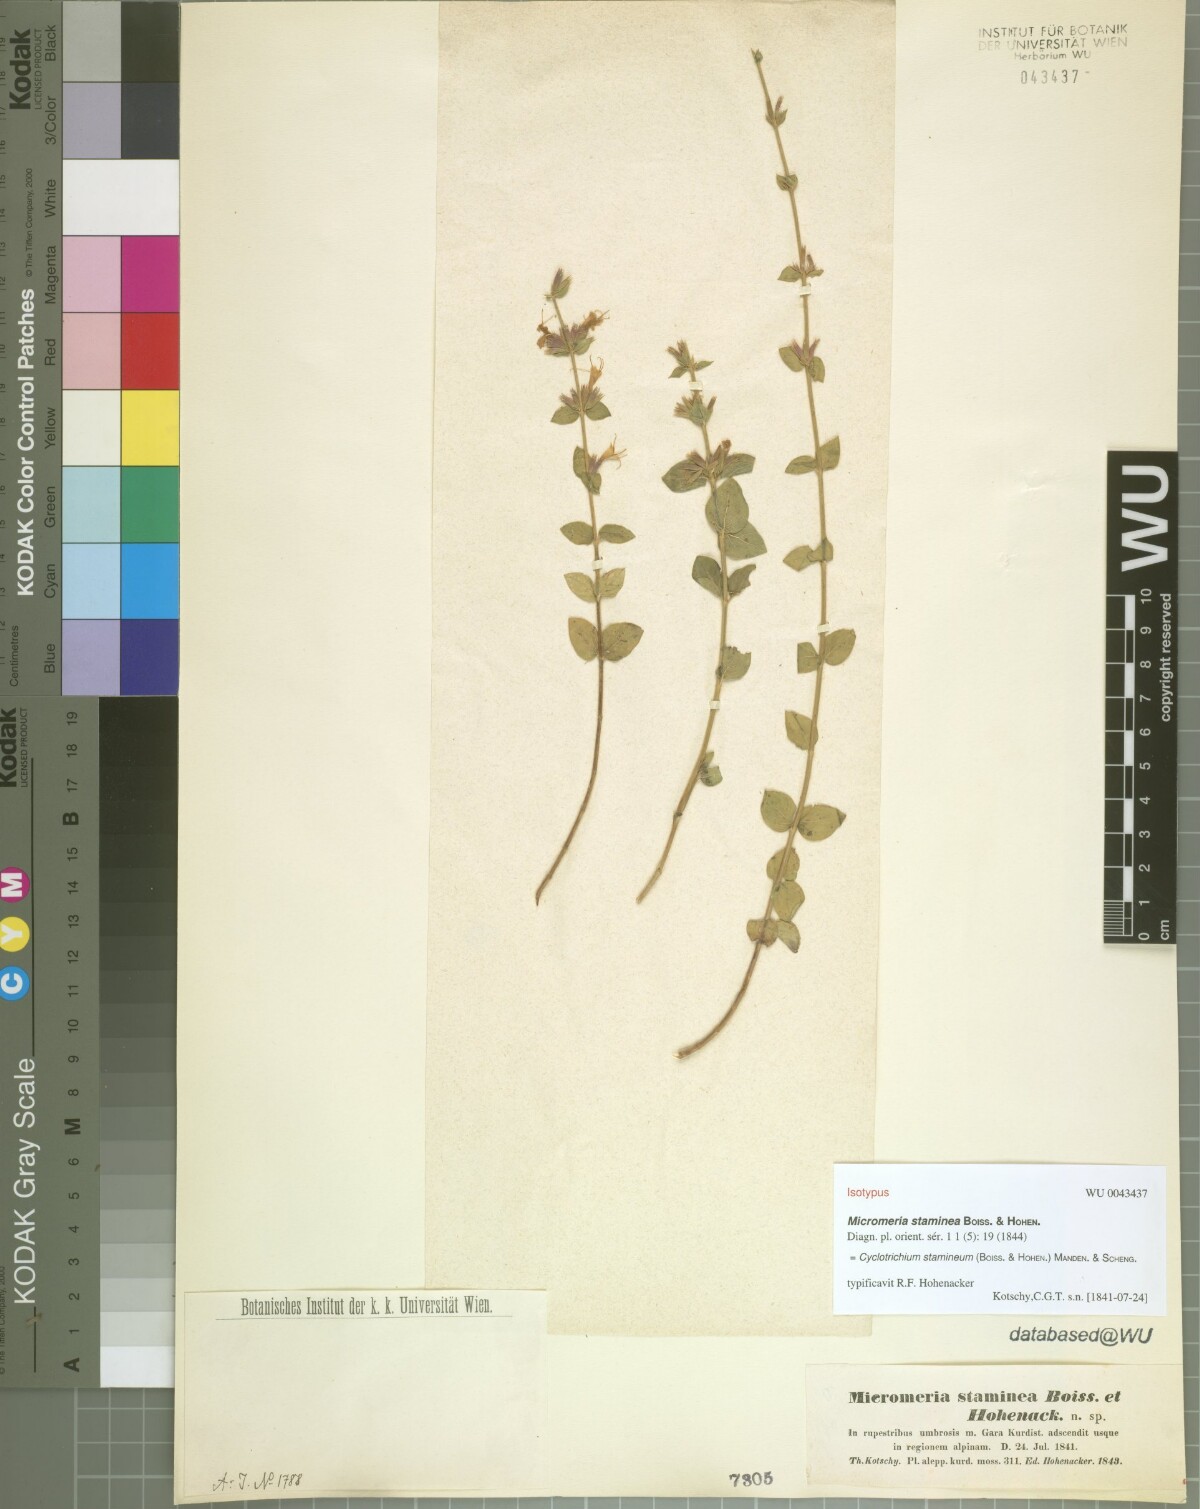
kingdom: Plantae
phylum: Tracheophyta
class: Magnoliopsida
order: Lamiales
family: Lamiaceae
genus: Cyclotrichium
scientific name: Cyclotrichium stamineum
